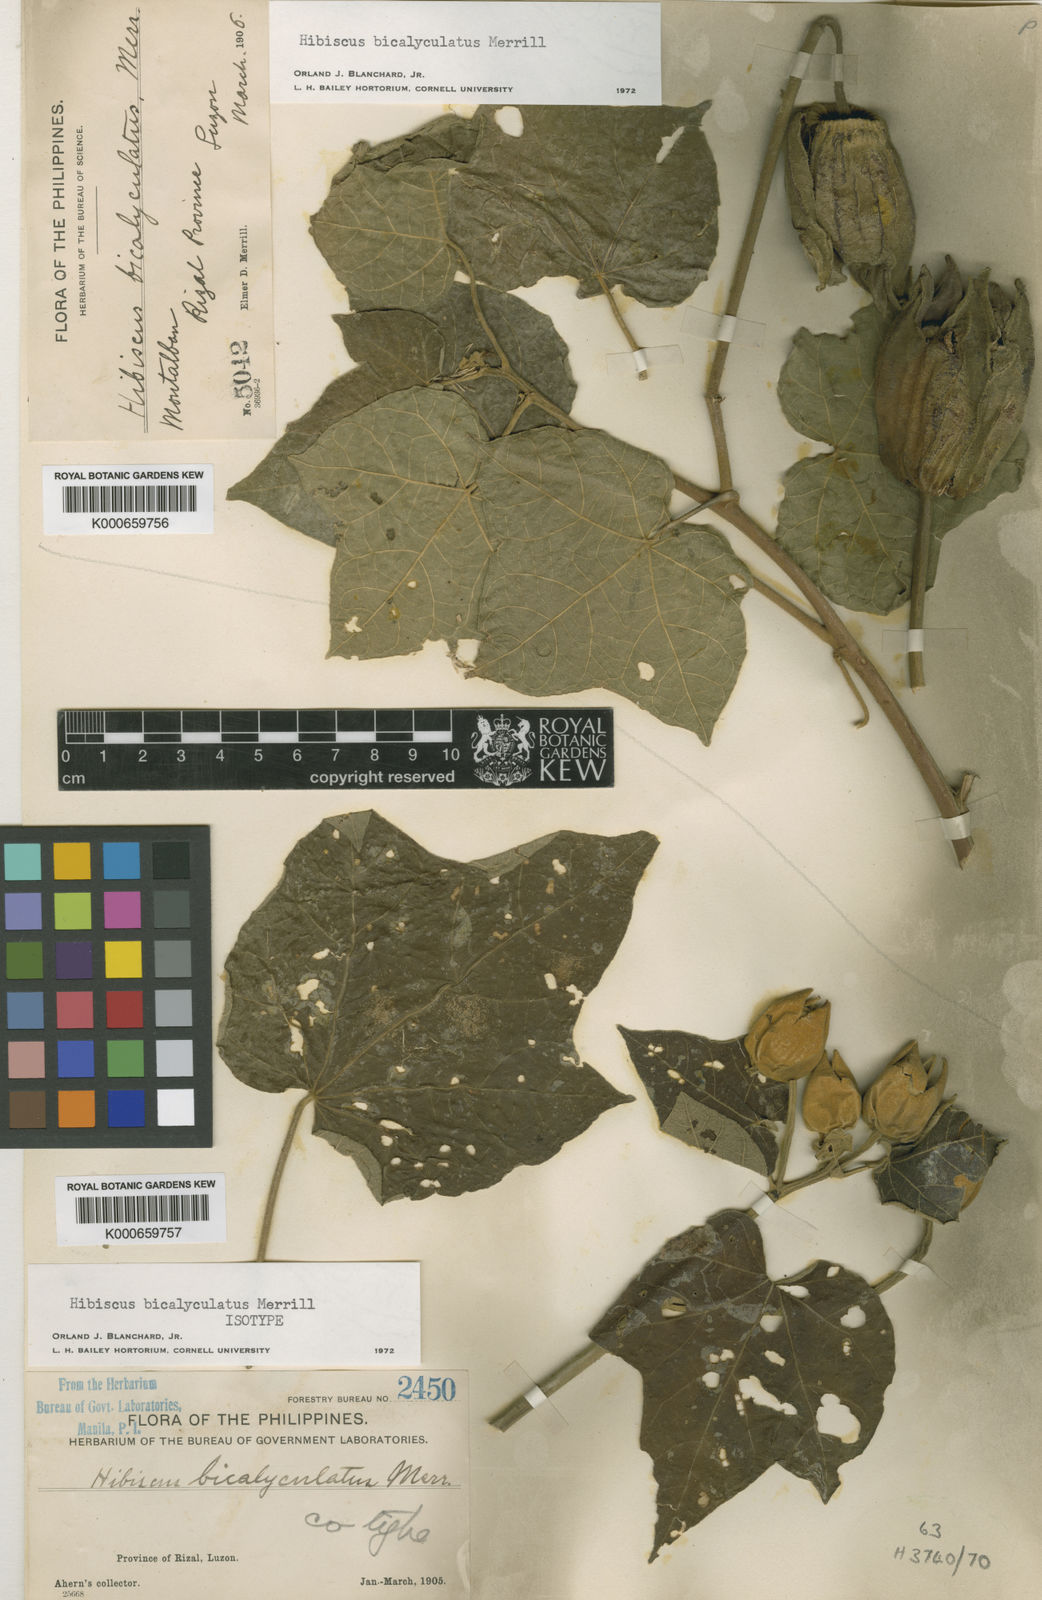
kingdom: Plantae
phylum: Tracheophyta
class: Magnoliopsida
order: Malvales
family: Malvaceae
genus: Hibiscus
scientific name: Hibiscus bicalyculatus
